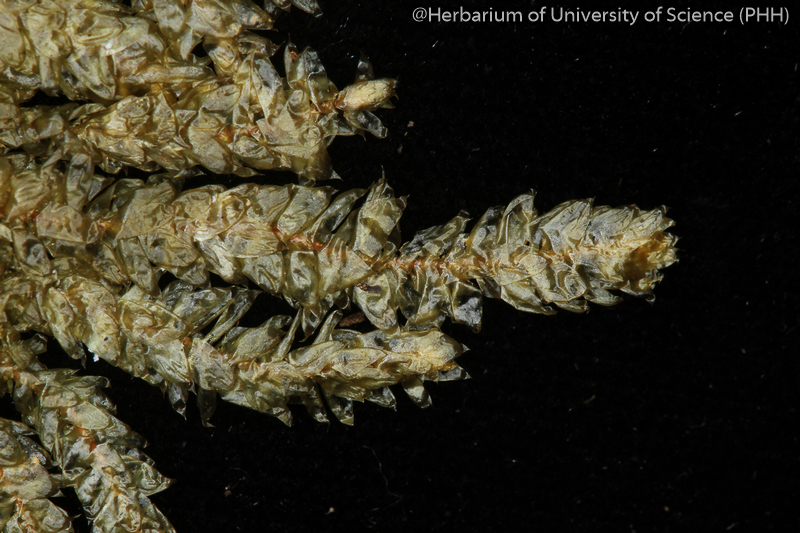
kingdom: Plantae
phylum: Bryophyta
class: Bryopsida
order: Hypnales
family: Pterobryaceae
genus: Pterobryopsis
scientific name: Pterobryopsis tumida
